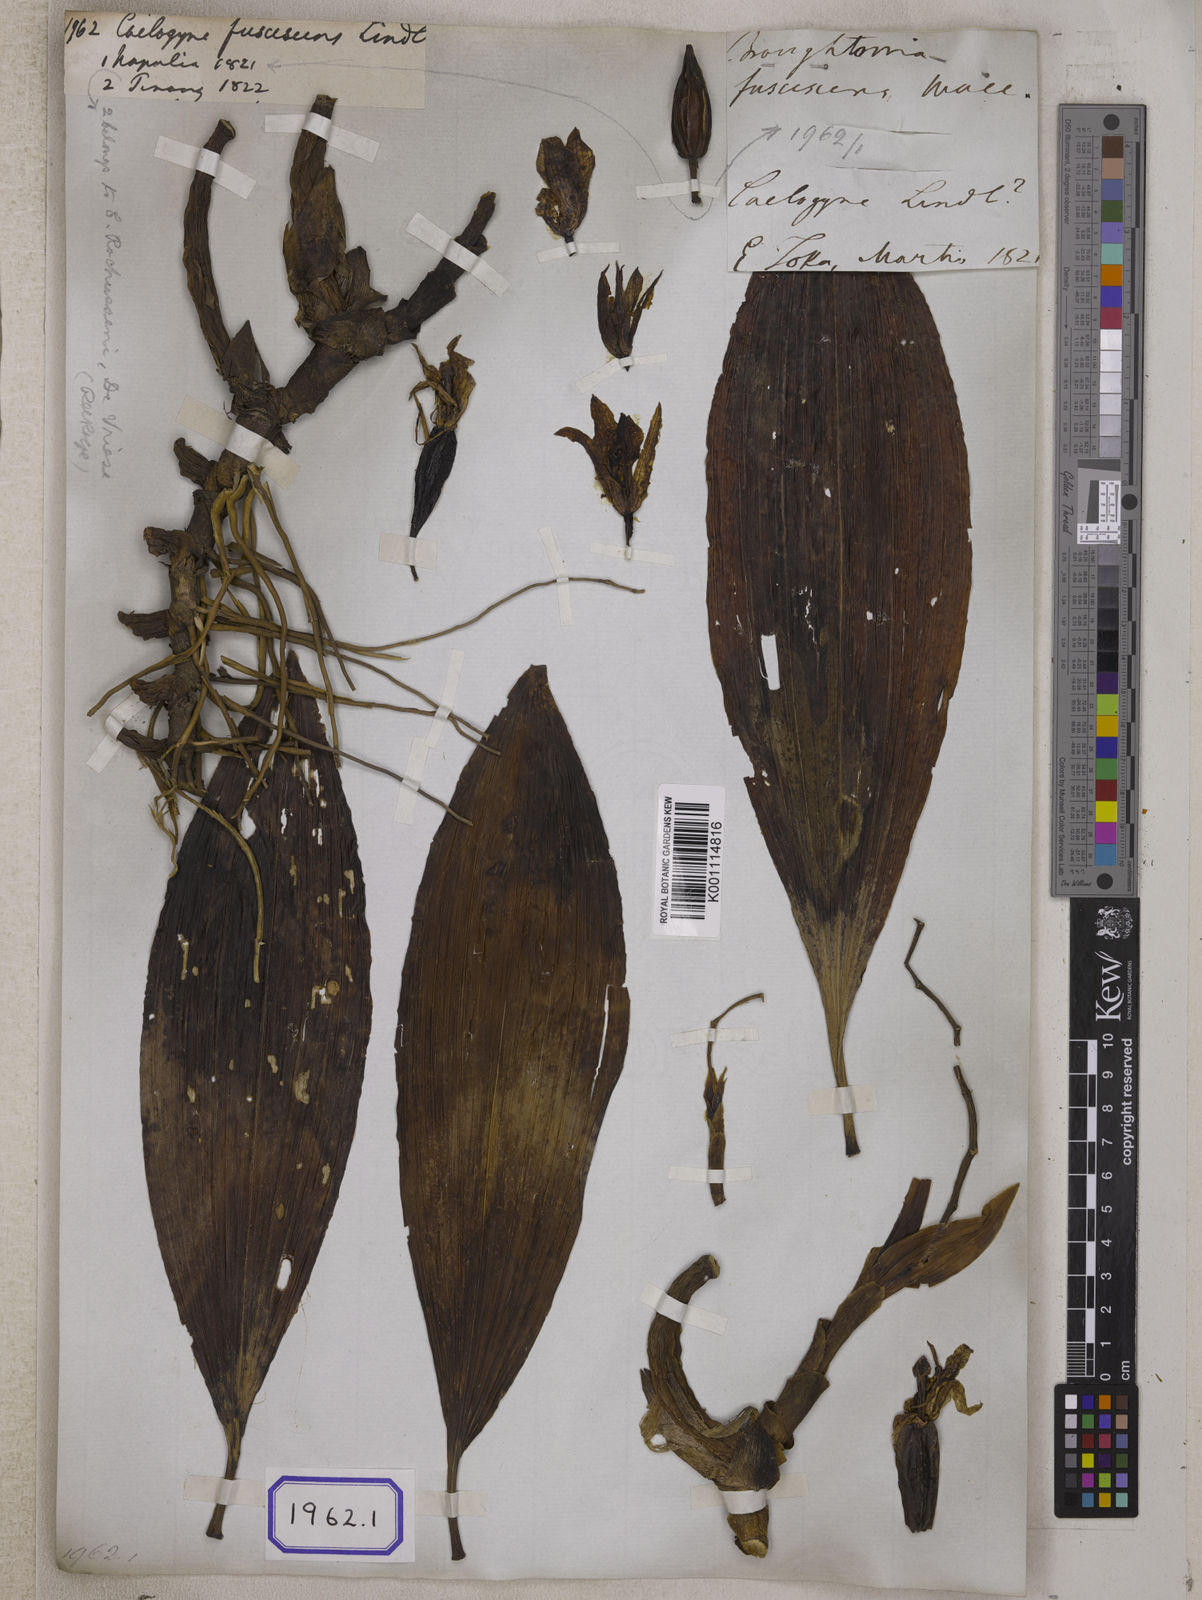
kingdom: Plantae
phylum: Tracheophyta
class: Liliopsida
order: Asparagales
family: Orchidaceae
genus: Coelogyne
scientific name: Coelogyne fuscescens
